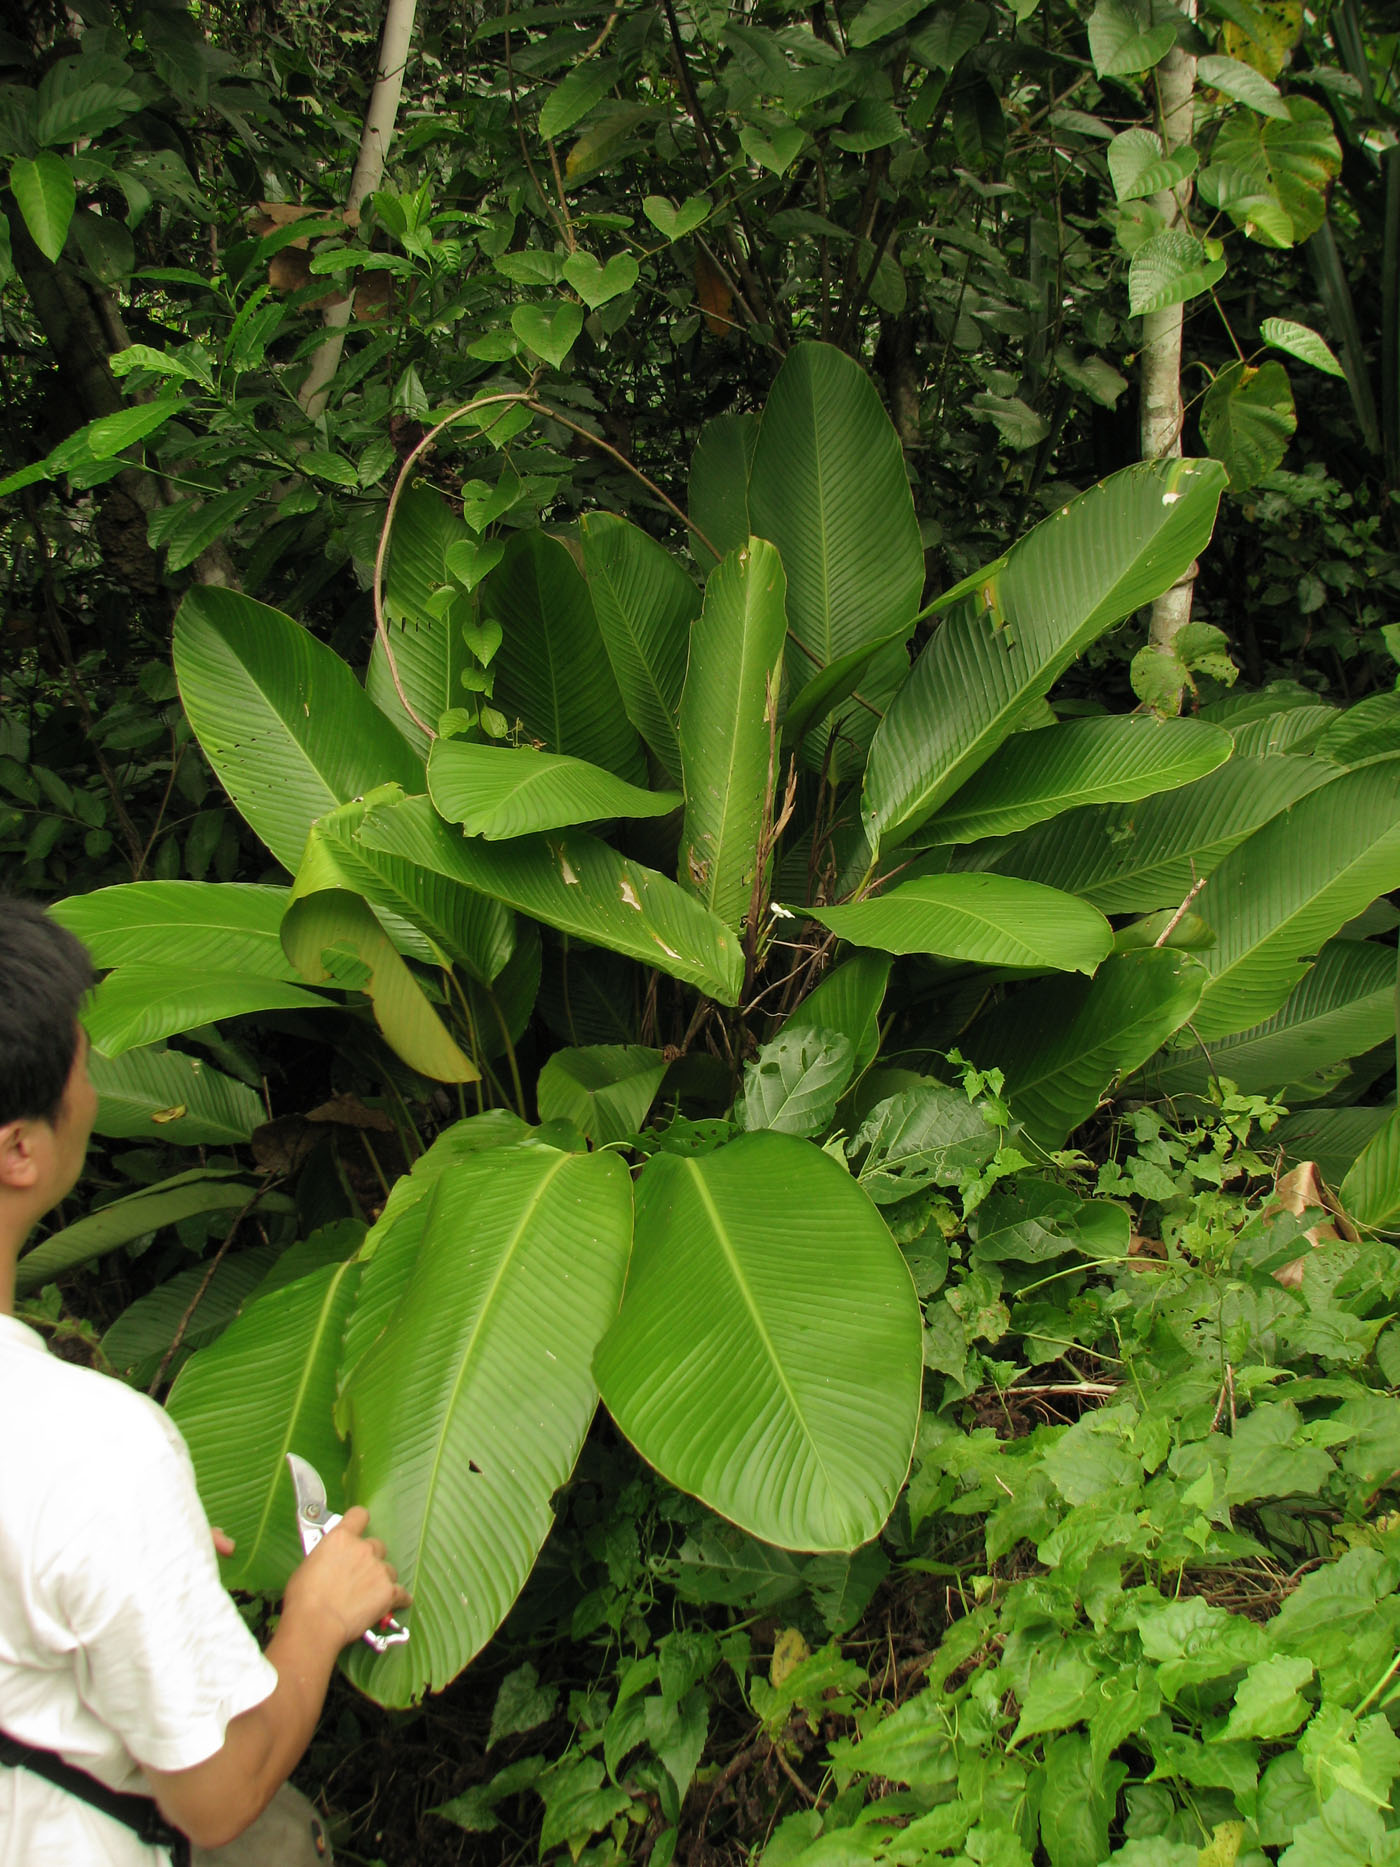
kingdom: Plantae
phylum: Tracheophyta
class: Liliopsida
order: Zingiberales
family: Marantaceae
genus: Phrynium
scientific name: Phrynium rubrum
